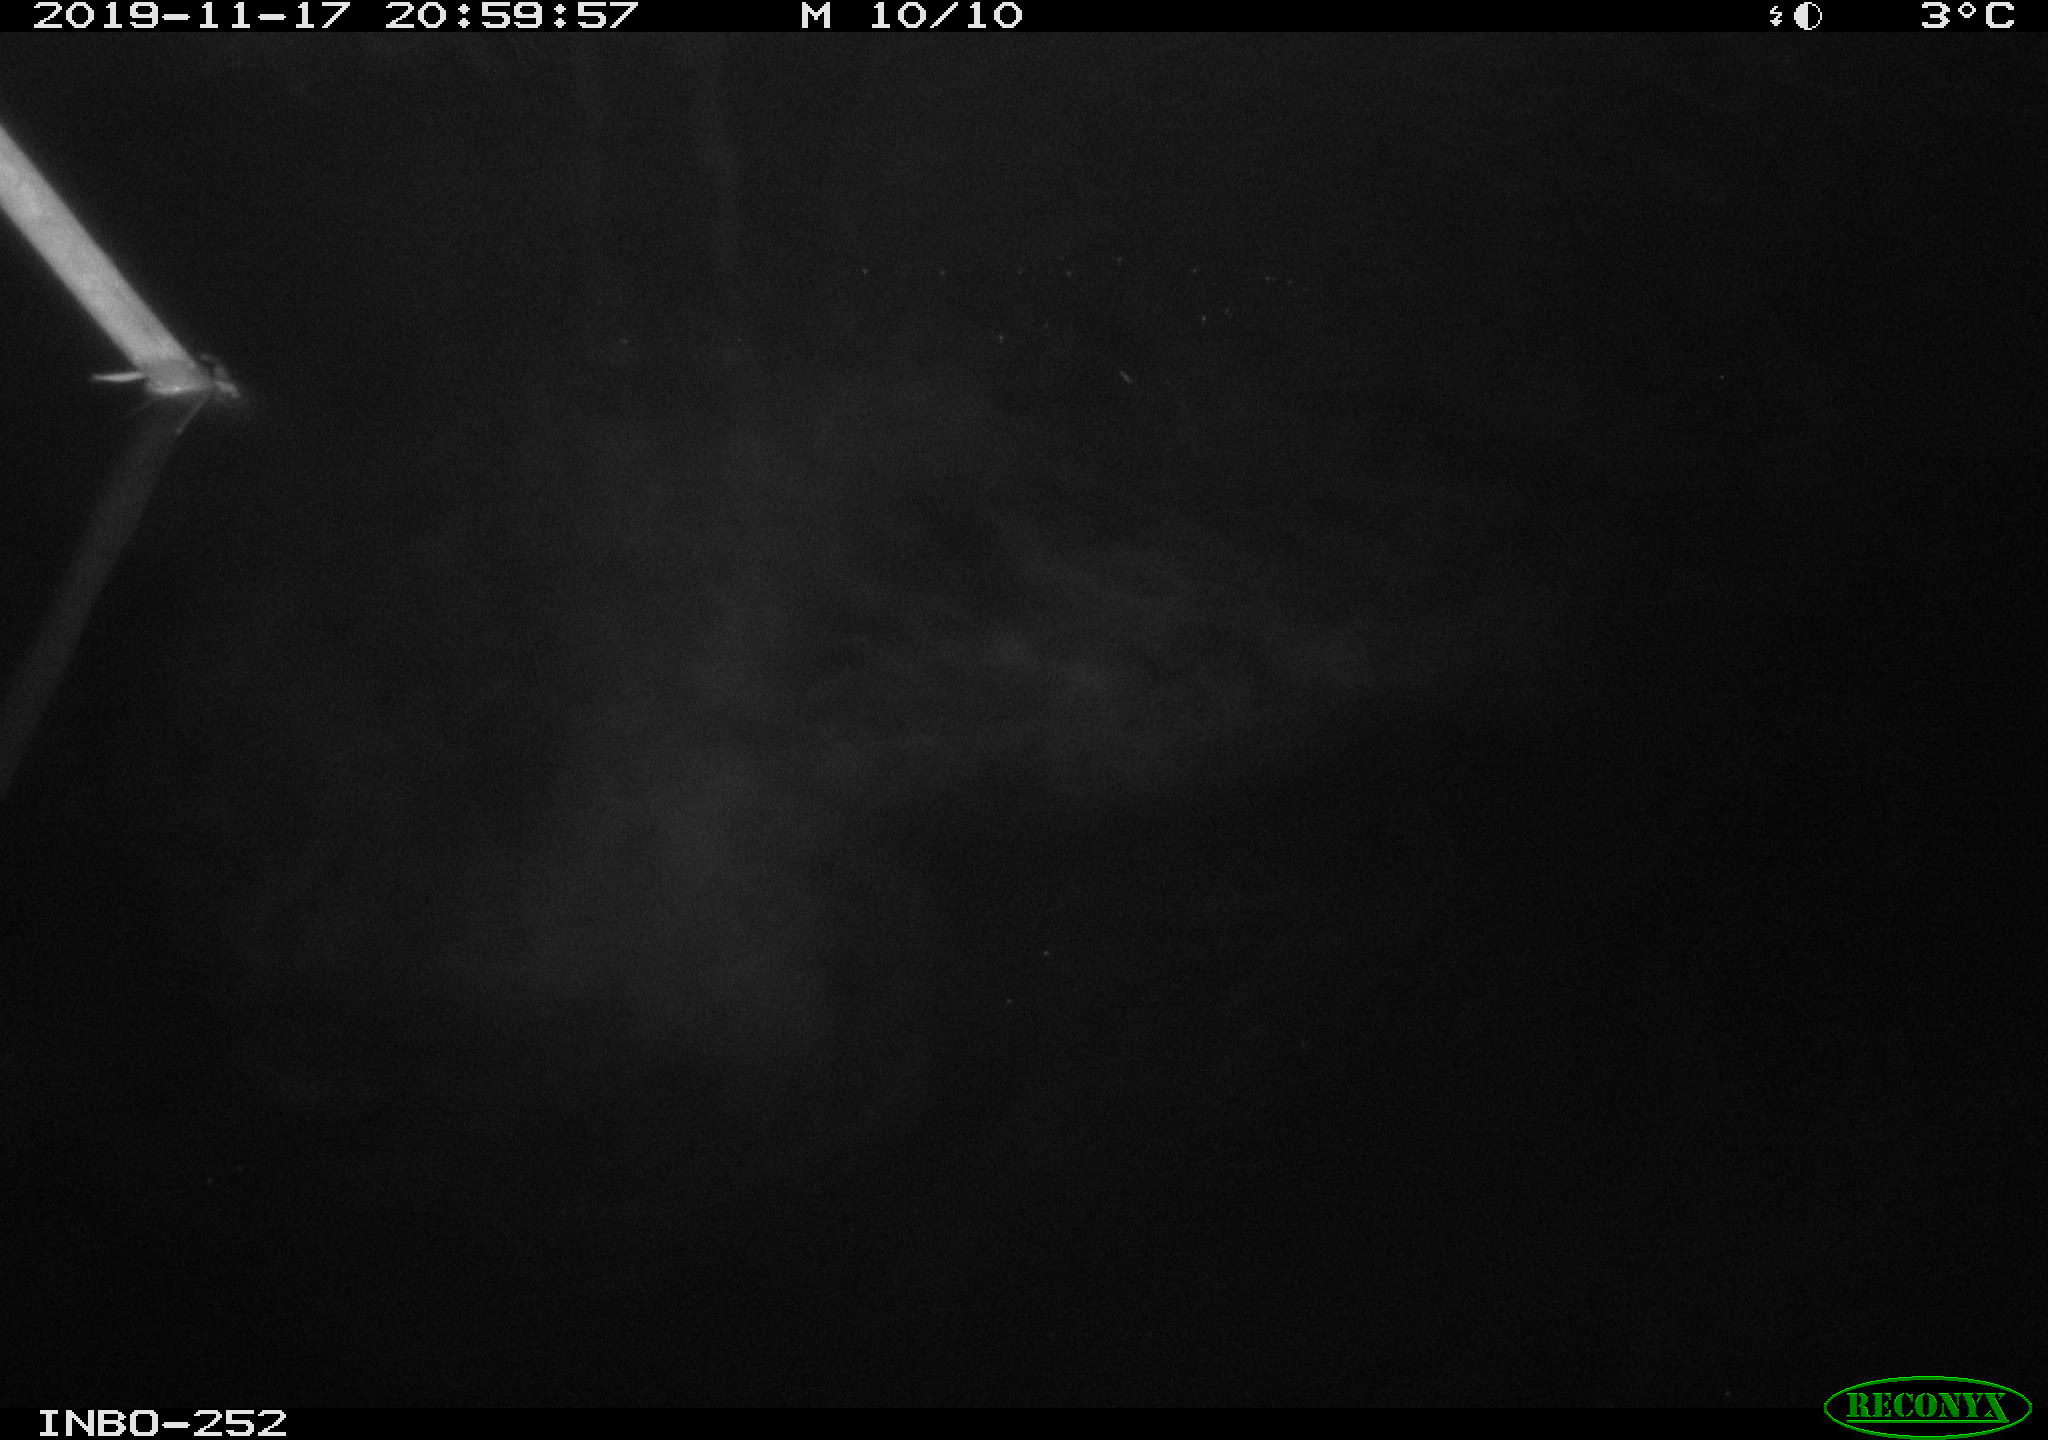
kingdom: Animalia
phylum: Chordata
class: Aves
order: Anseriformes
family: Anatidae
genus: Anas
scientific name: Anas platyrhynchos
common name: Mallard
